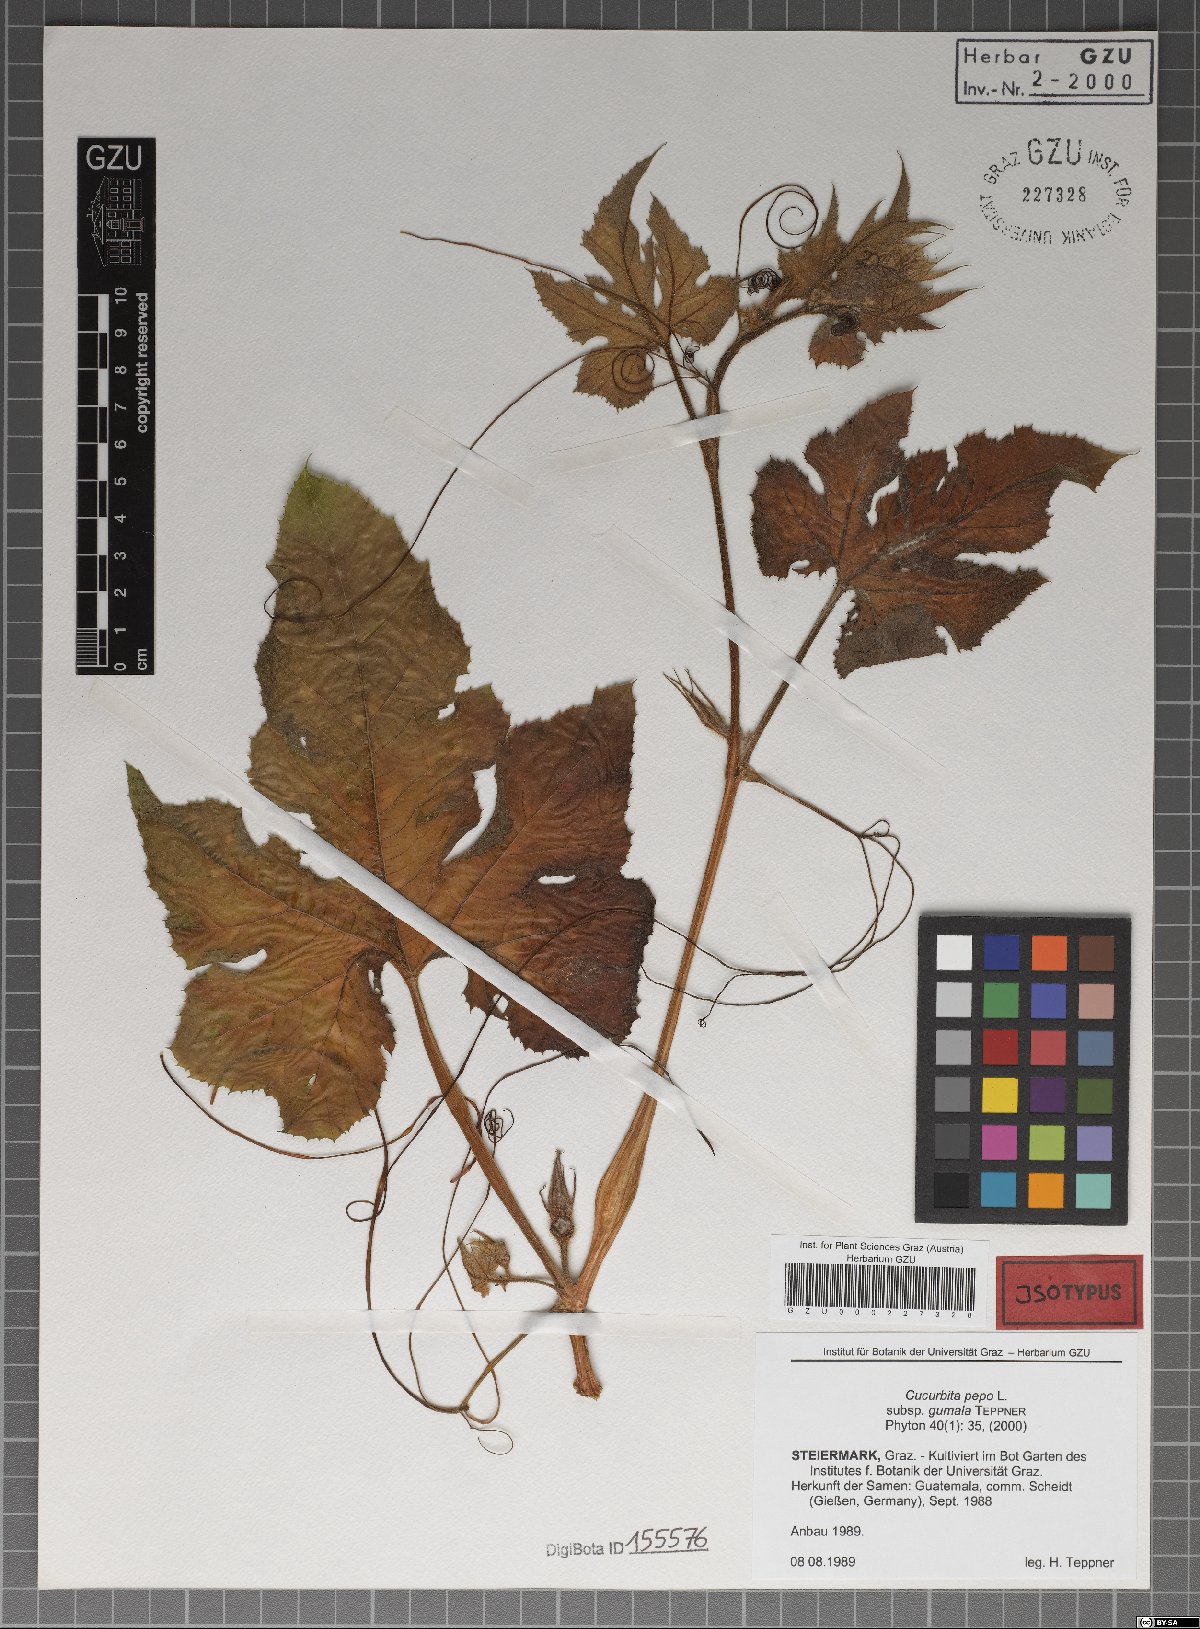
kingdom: Plantae
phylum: Tracheophyta
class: Magnoliopsida
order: Cucurbitales
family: Cucurbitaceae
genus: Cucurbita
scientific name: Cucurbita pepo
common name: Marrow
